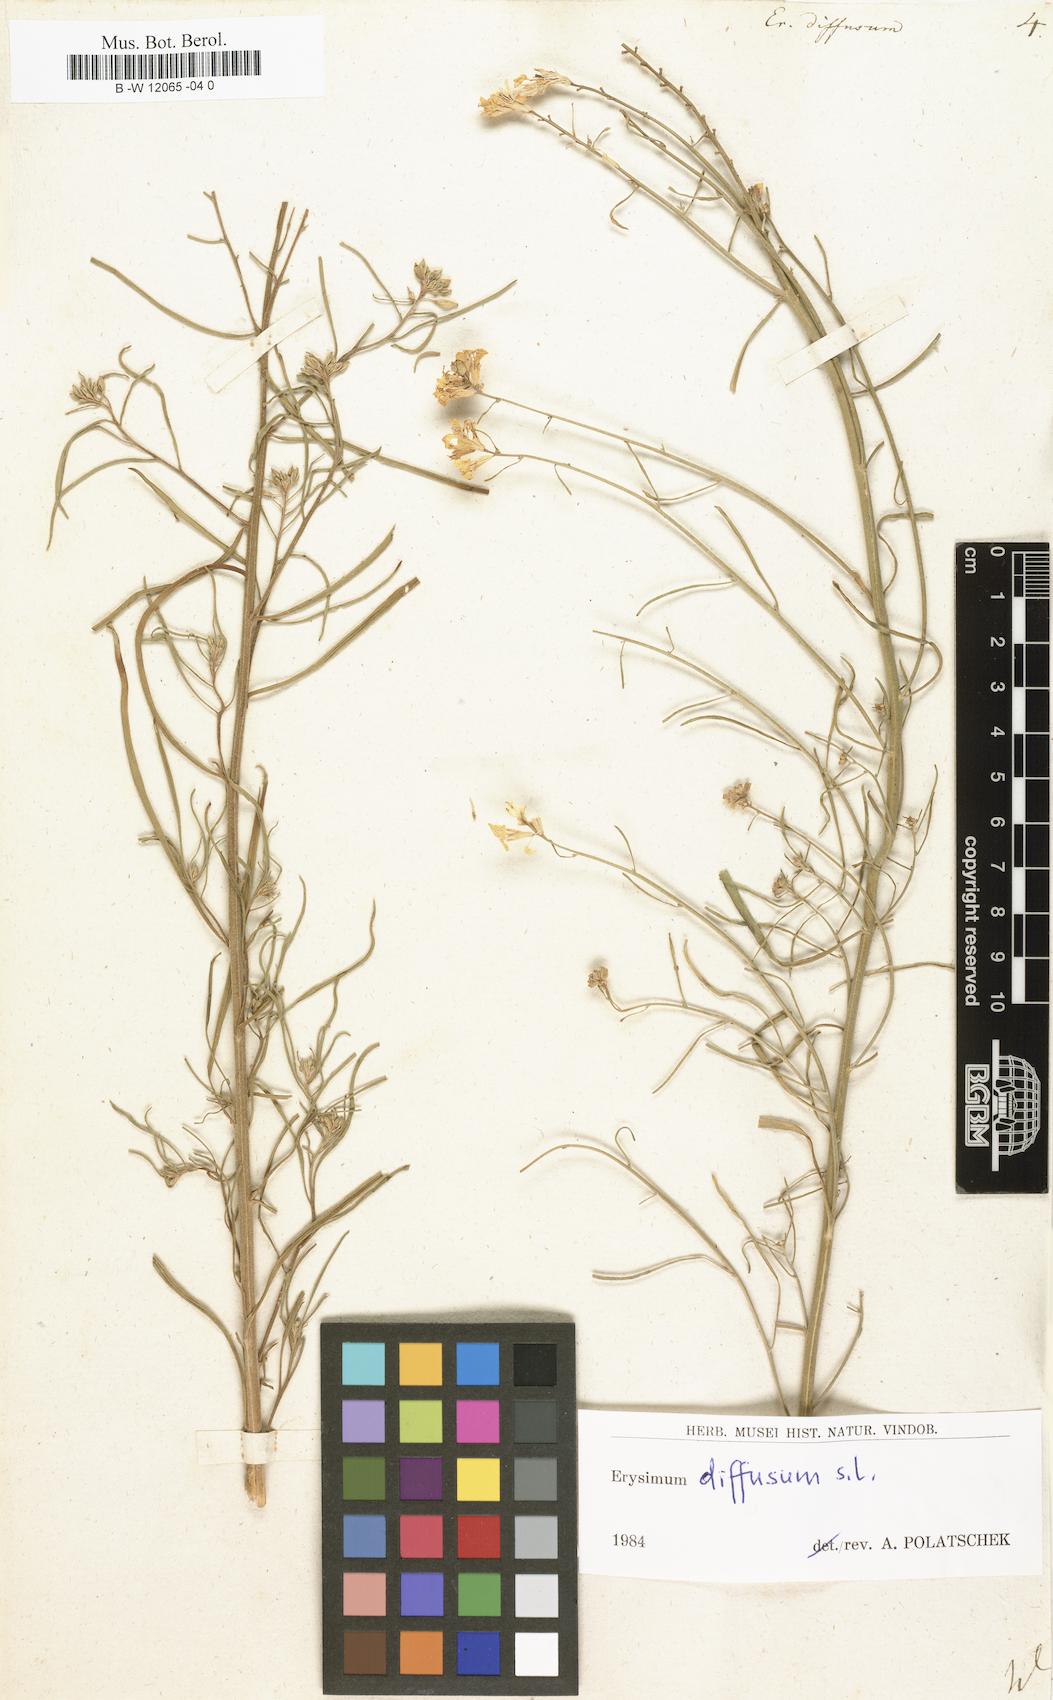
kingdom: Plantae
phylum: Tracheophyta
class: Magnoliopsida
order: Brassicales
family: Brassicaceae
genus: Erysimum
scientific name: Erysimum diffusum
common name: Diffuse wallflower
